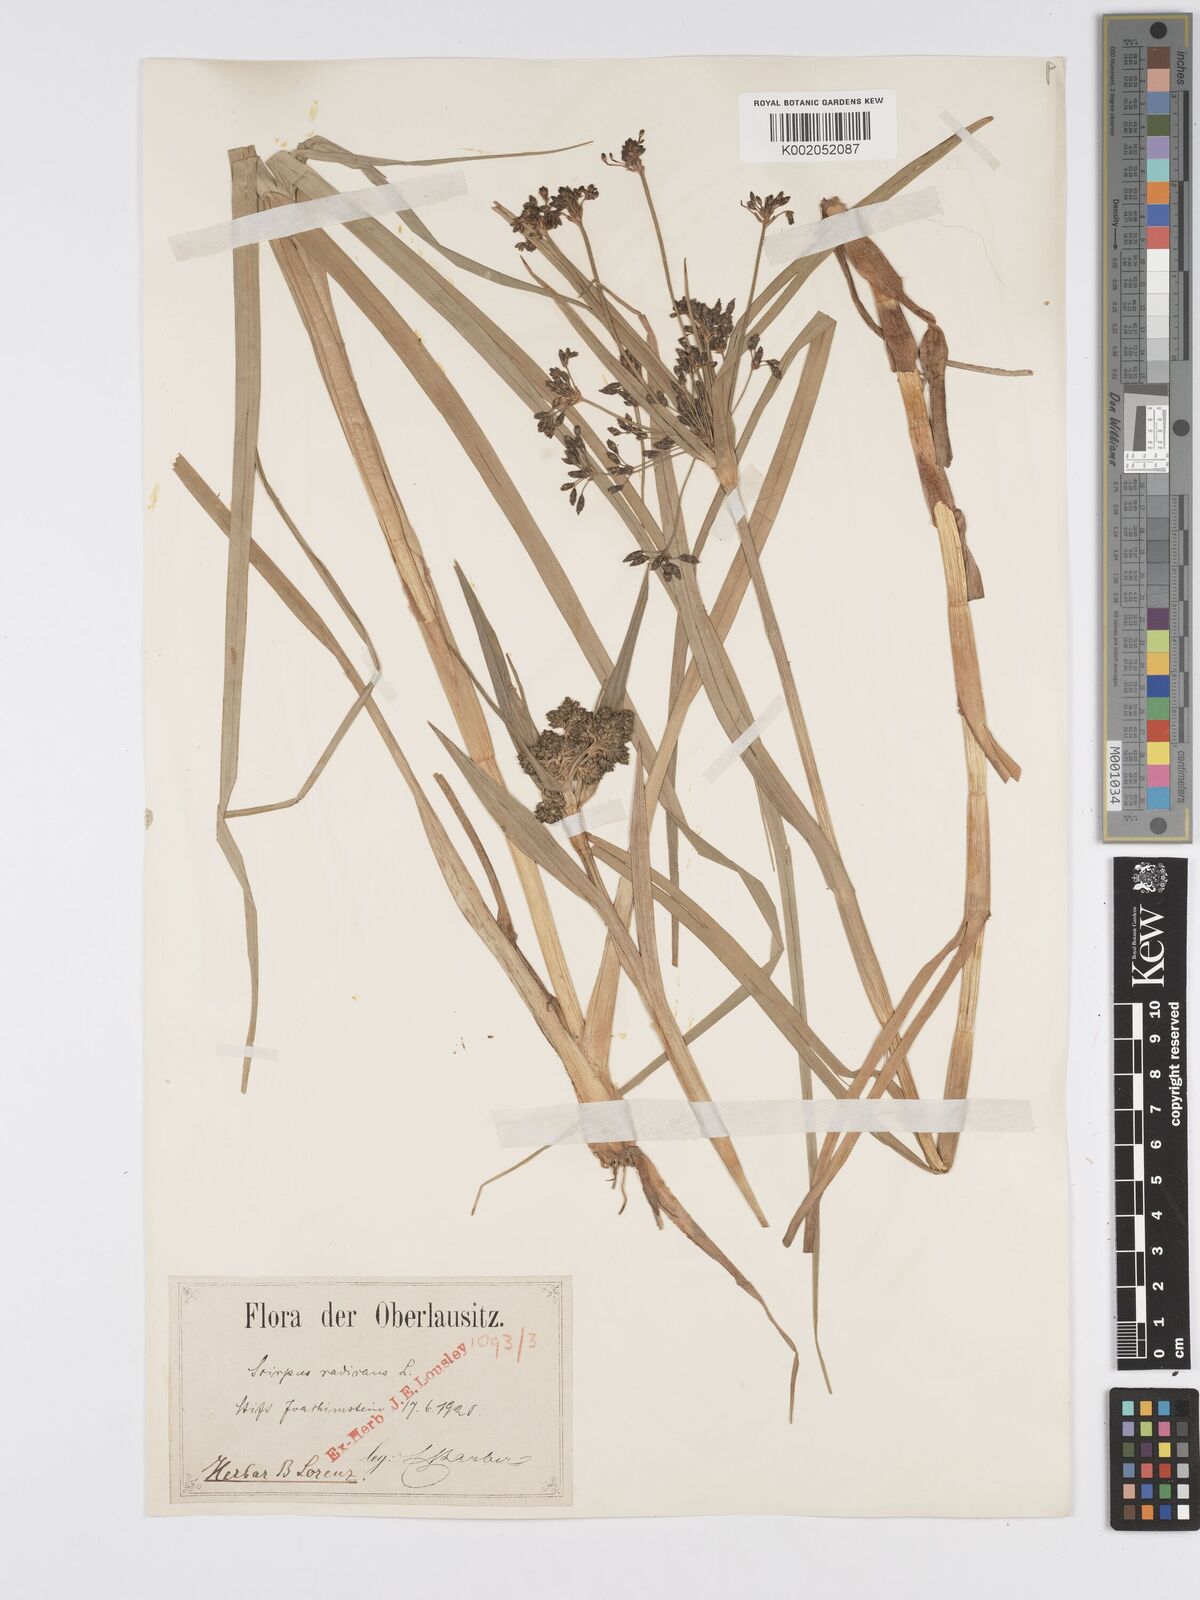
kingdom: Plantae
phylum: Tracheophyta
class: Liliopsida
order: Poales
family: Cyperaceae
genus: Scirpus
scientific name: Scirpus radicans
